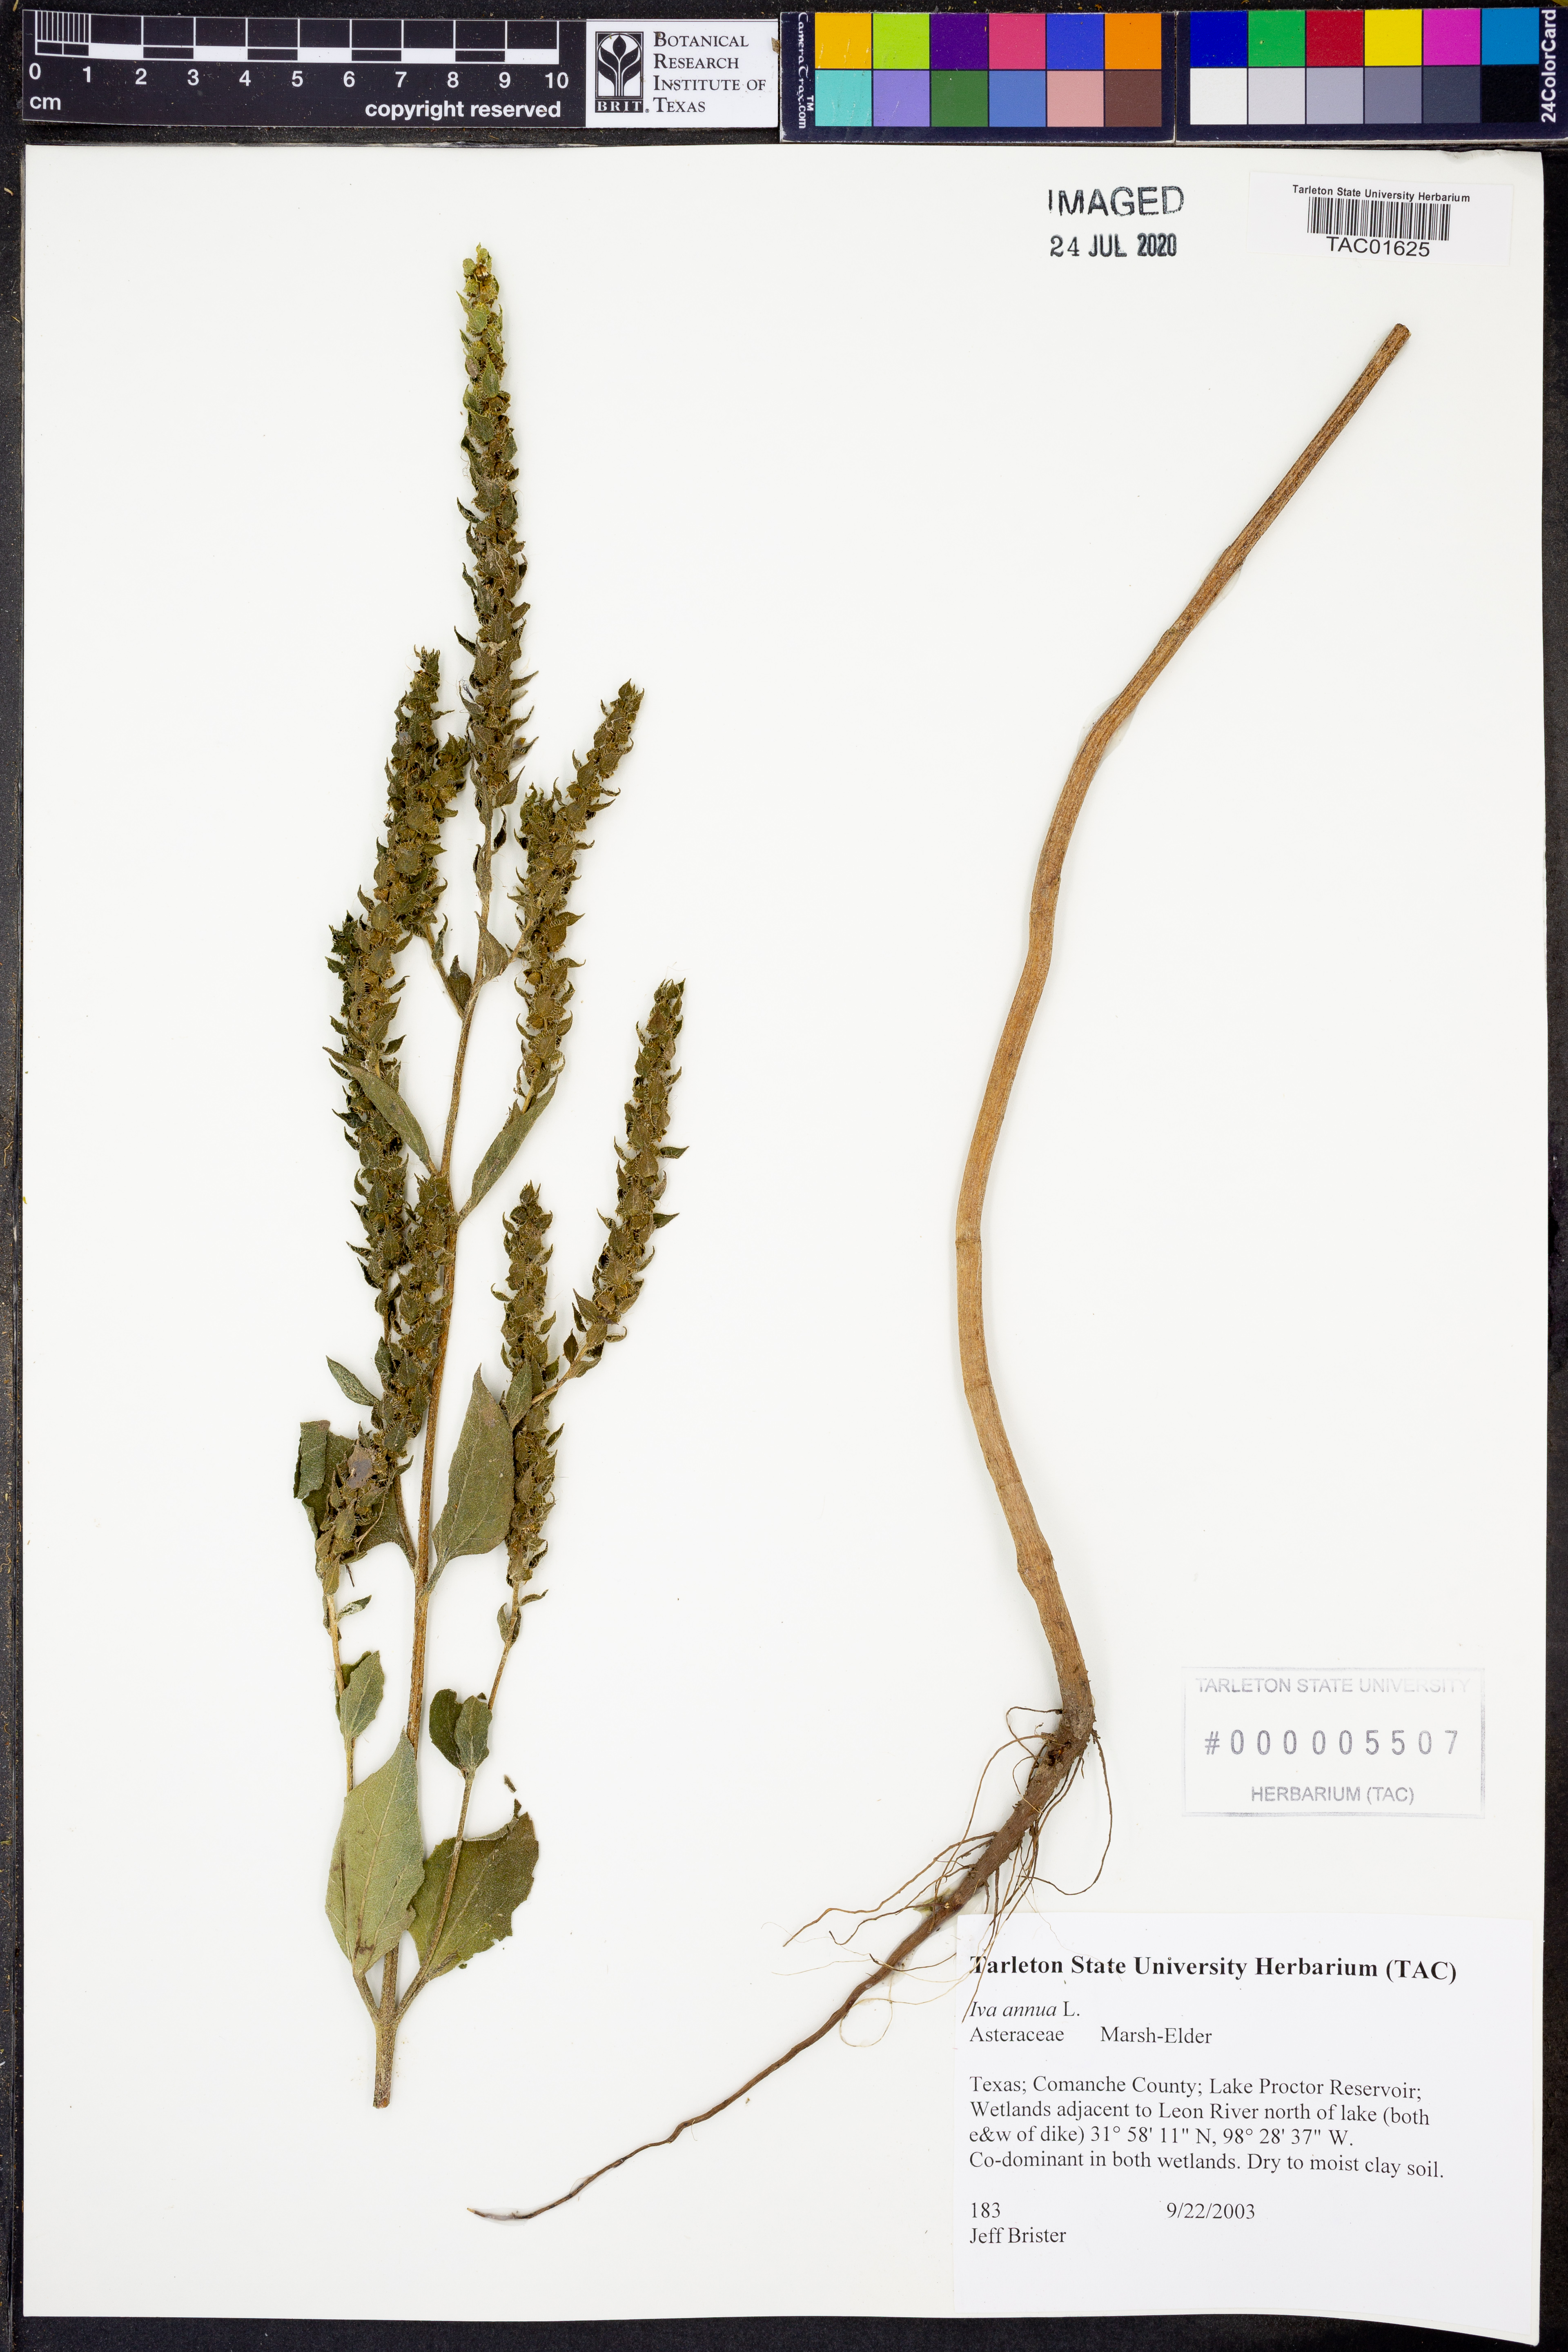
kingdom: Plantae
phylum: Tracheophyta
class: Magnoliopsida
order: Asterales
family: Asteraceae
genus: Iva
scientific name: Iva annua
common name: Marsh-elder
